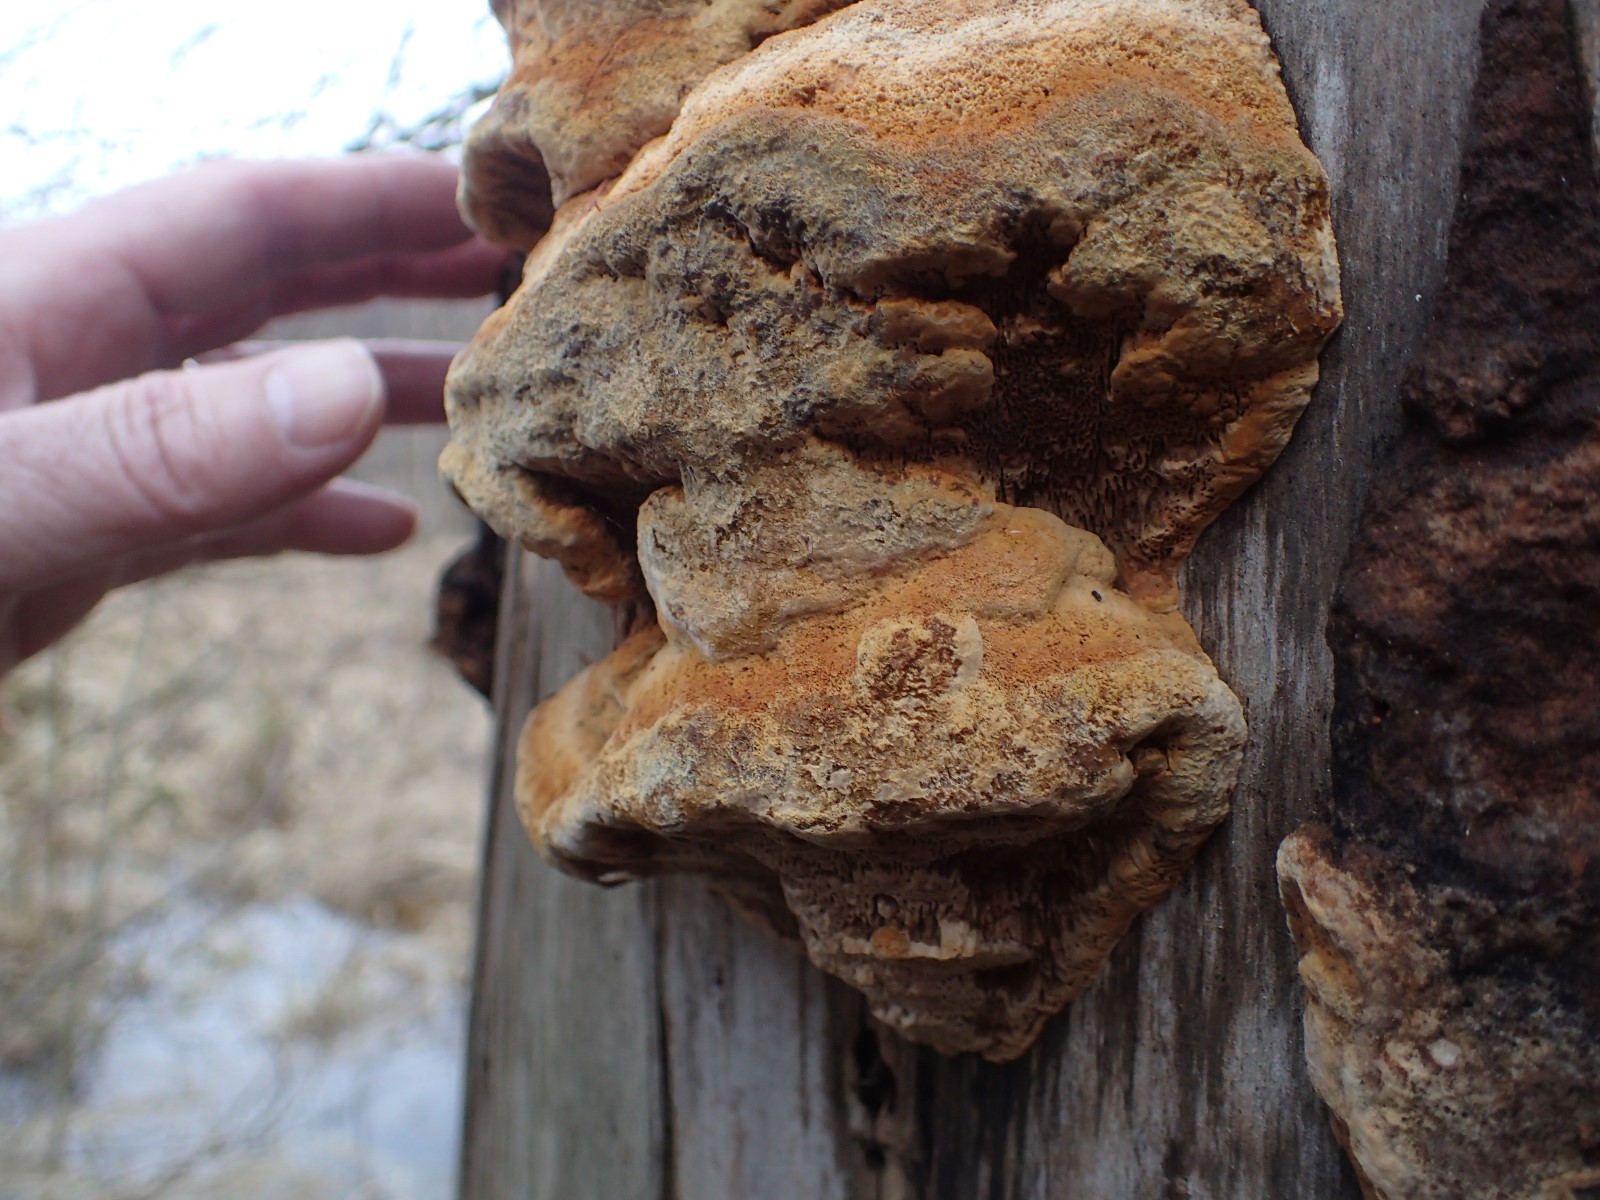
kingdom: Fungi
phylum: Basidiomycota
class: Agaricomycetes
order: Gloeophyllales
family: Gloeophyllaceae
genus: Gloeophyllum
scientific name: Gloeophyllum odoratum
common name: duftende korkhat
